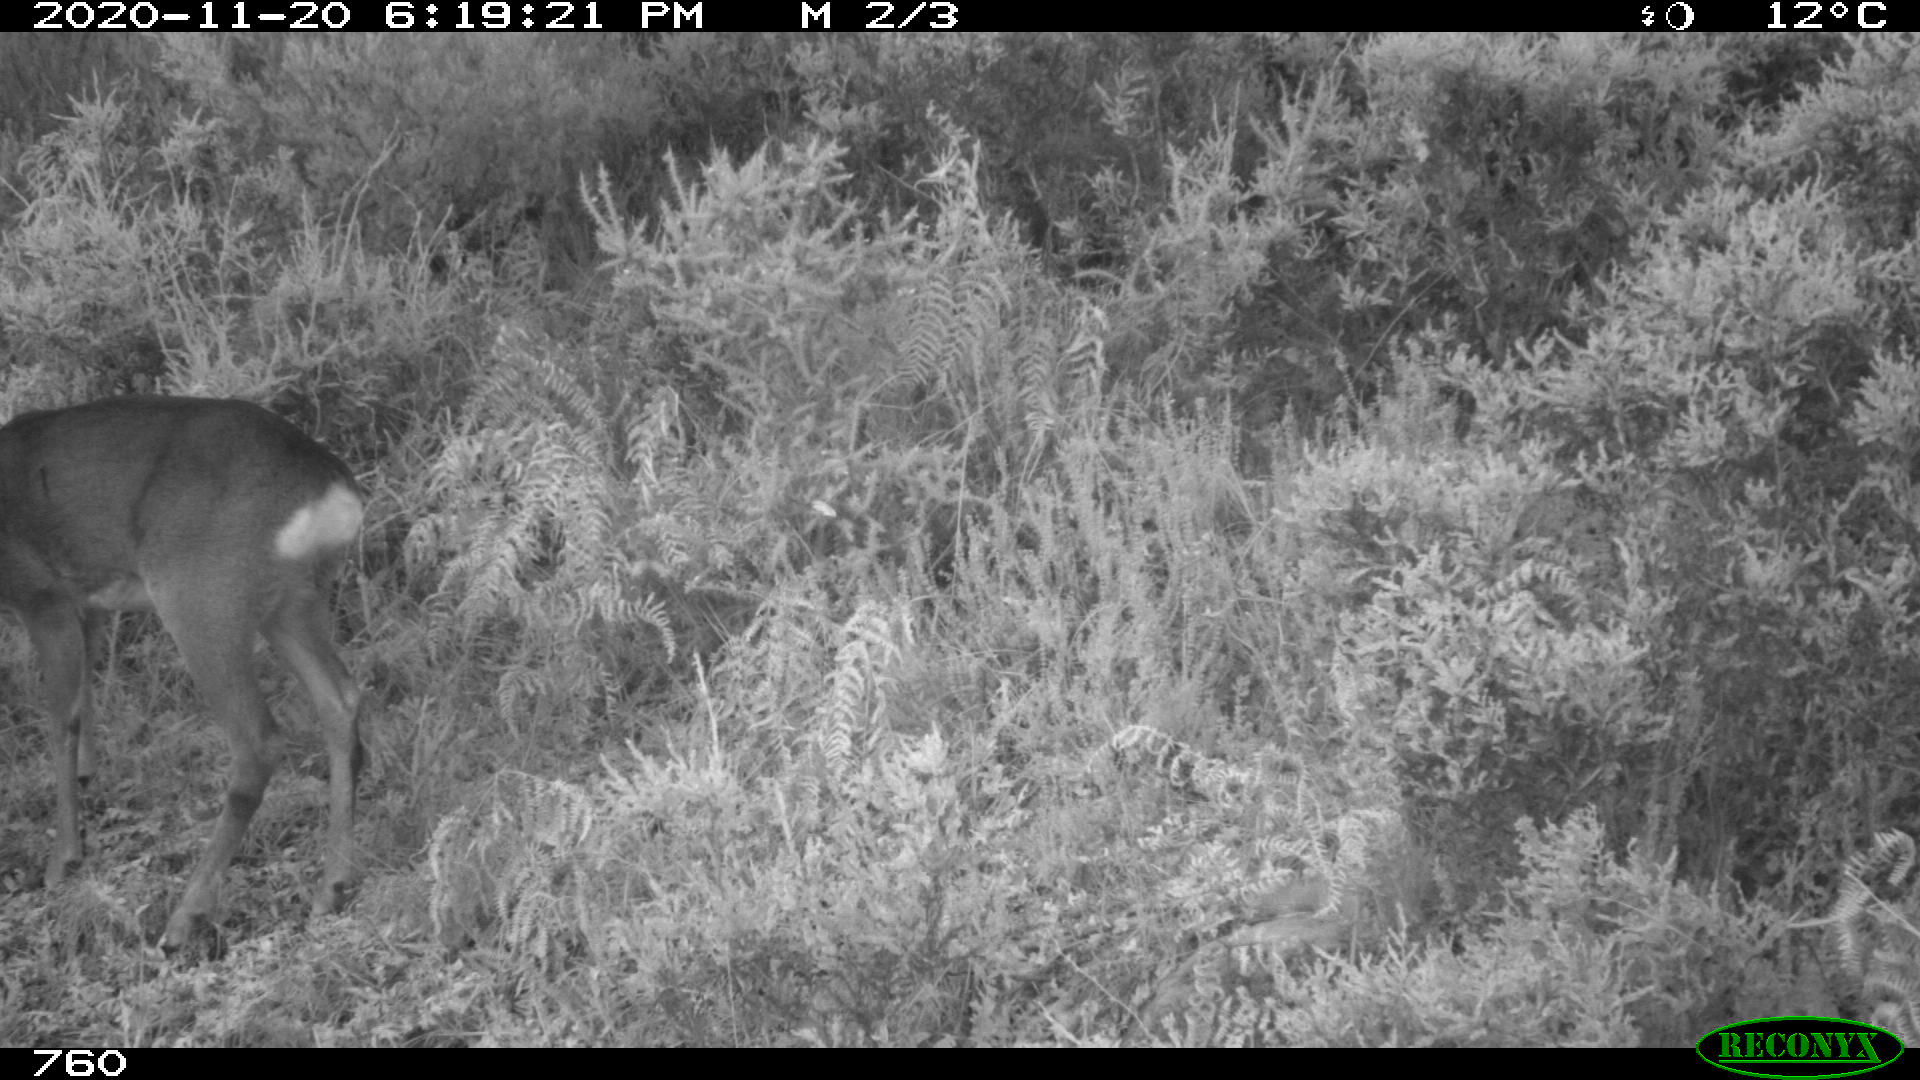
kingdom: Animalia
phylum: Chordata
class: Mammalia
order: Artiodactyla
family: Cervidae
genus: Capreolus
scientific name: Capreolus capreolus
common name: Western roe deer
